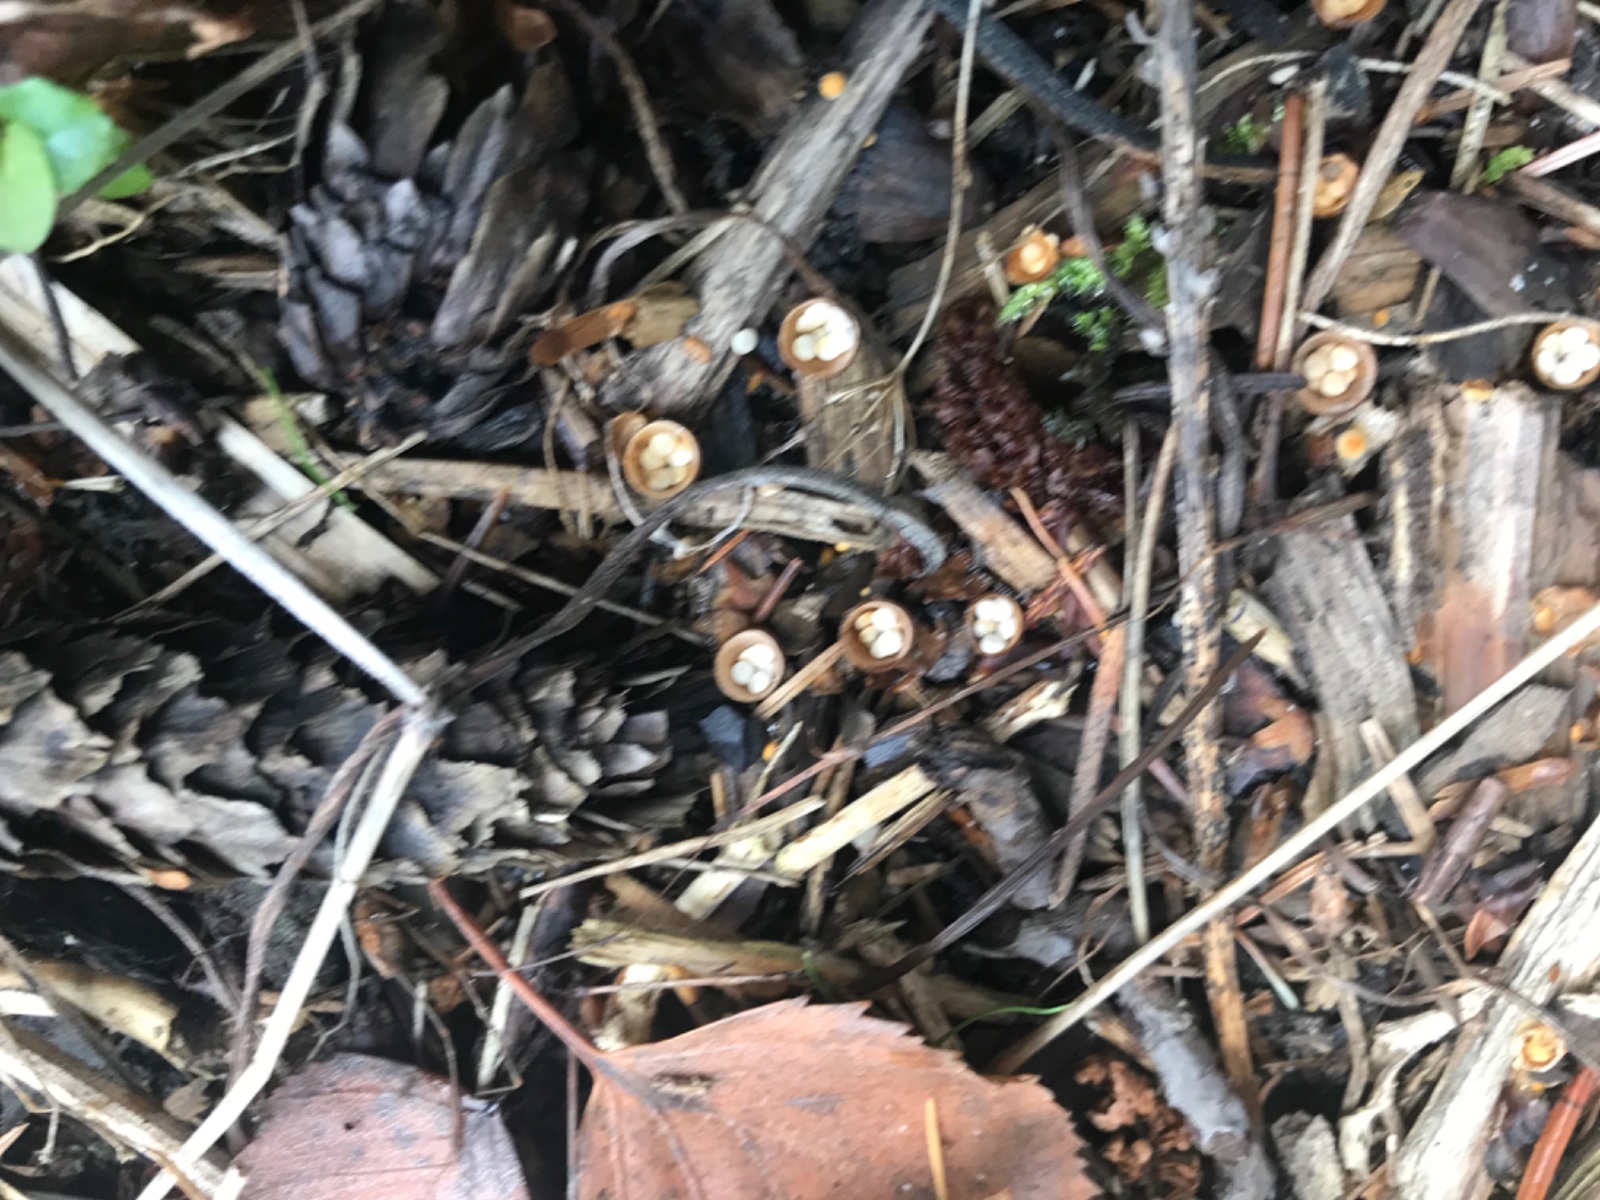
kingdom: Fungi
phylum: Basidiomycota
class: Agaricomycetes
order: Agaricales
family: Nidulariaceae
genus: Crucibulum
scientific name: Crucibulum crucibuliforme
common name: krukkesvamp
